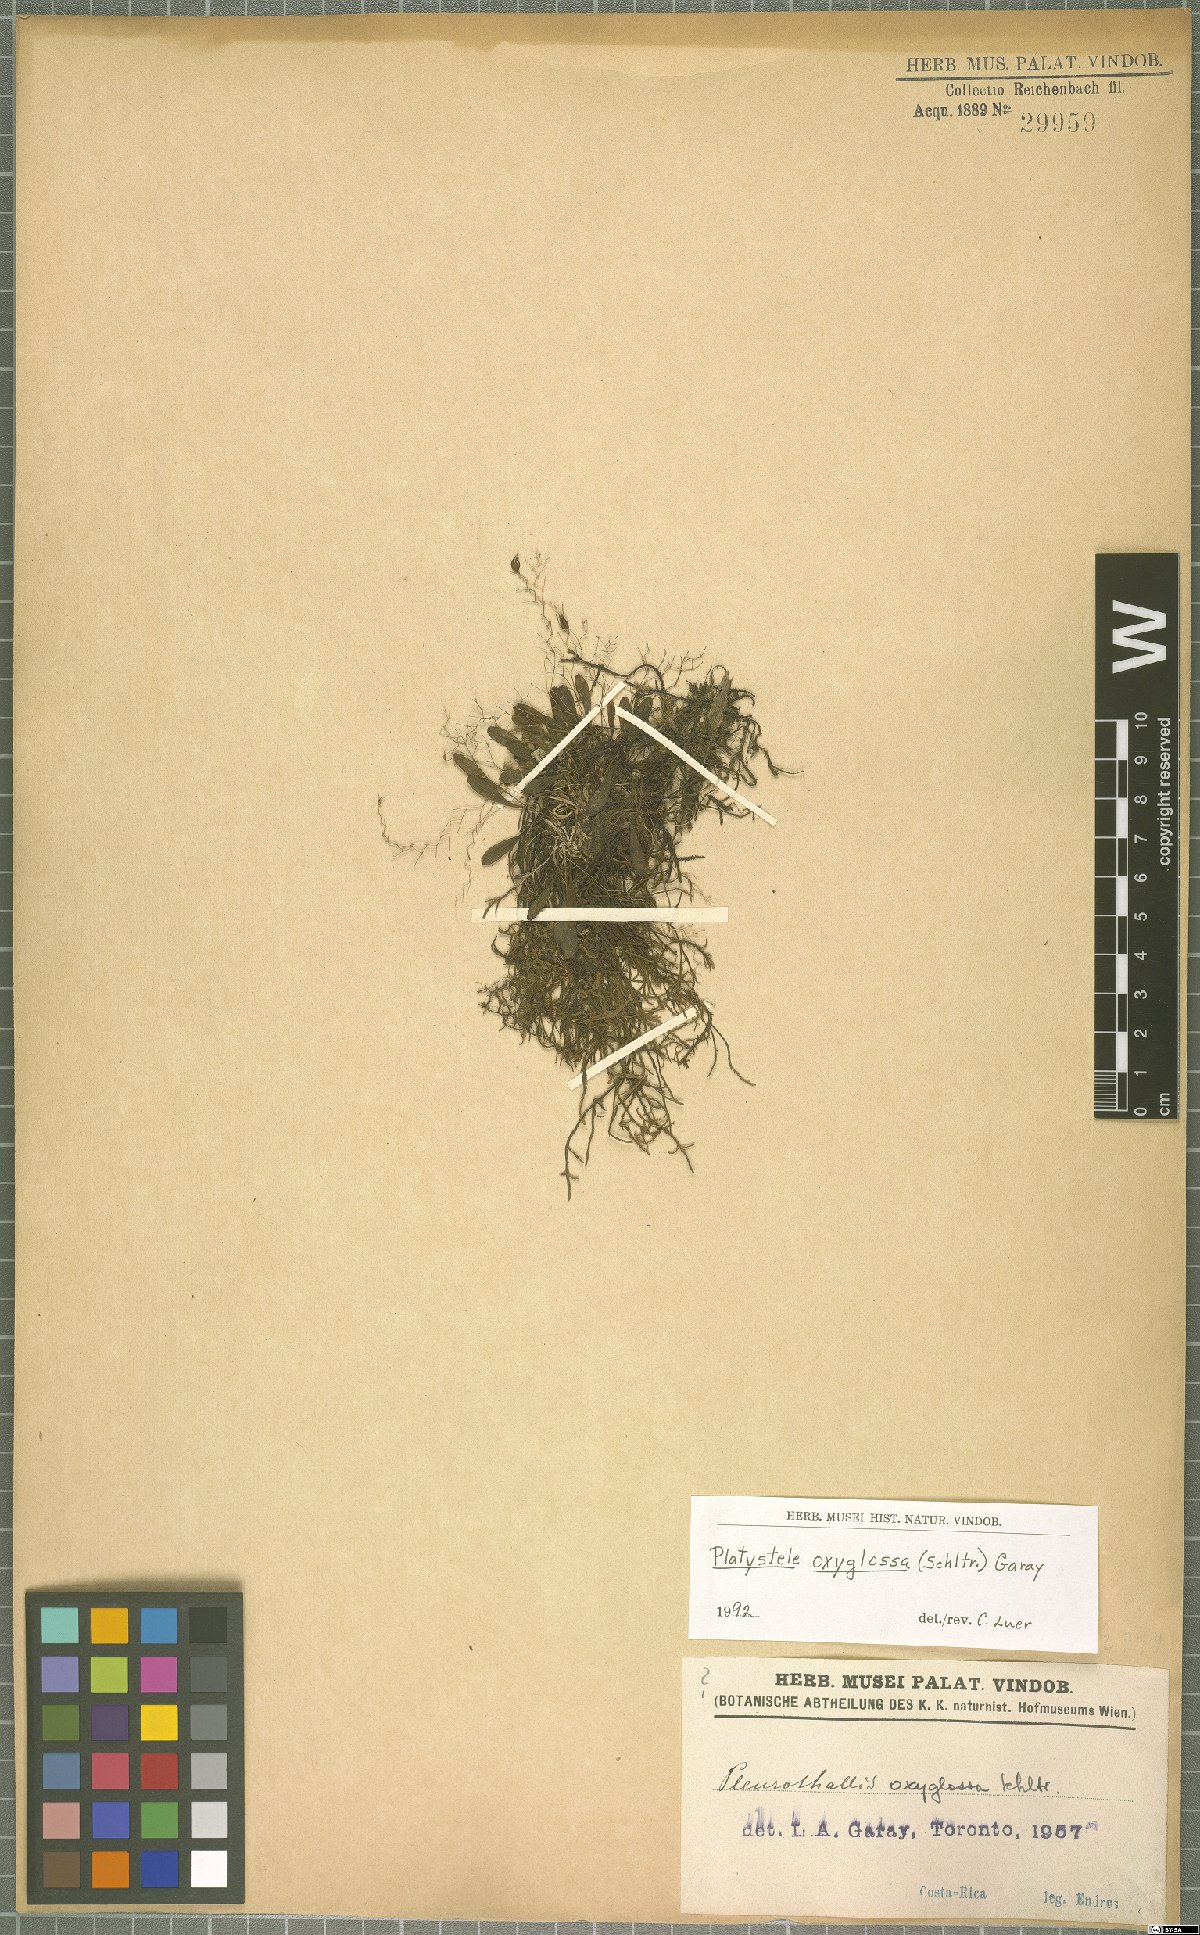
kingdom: Plantae
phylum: Tracheophyta
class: Liliopsida
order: Asparagales
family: Orchidaceae
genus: Platystele
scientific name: Platystele oxyglossa
